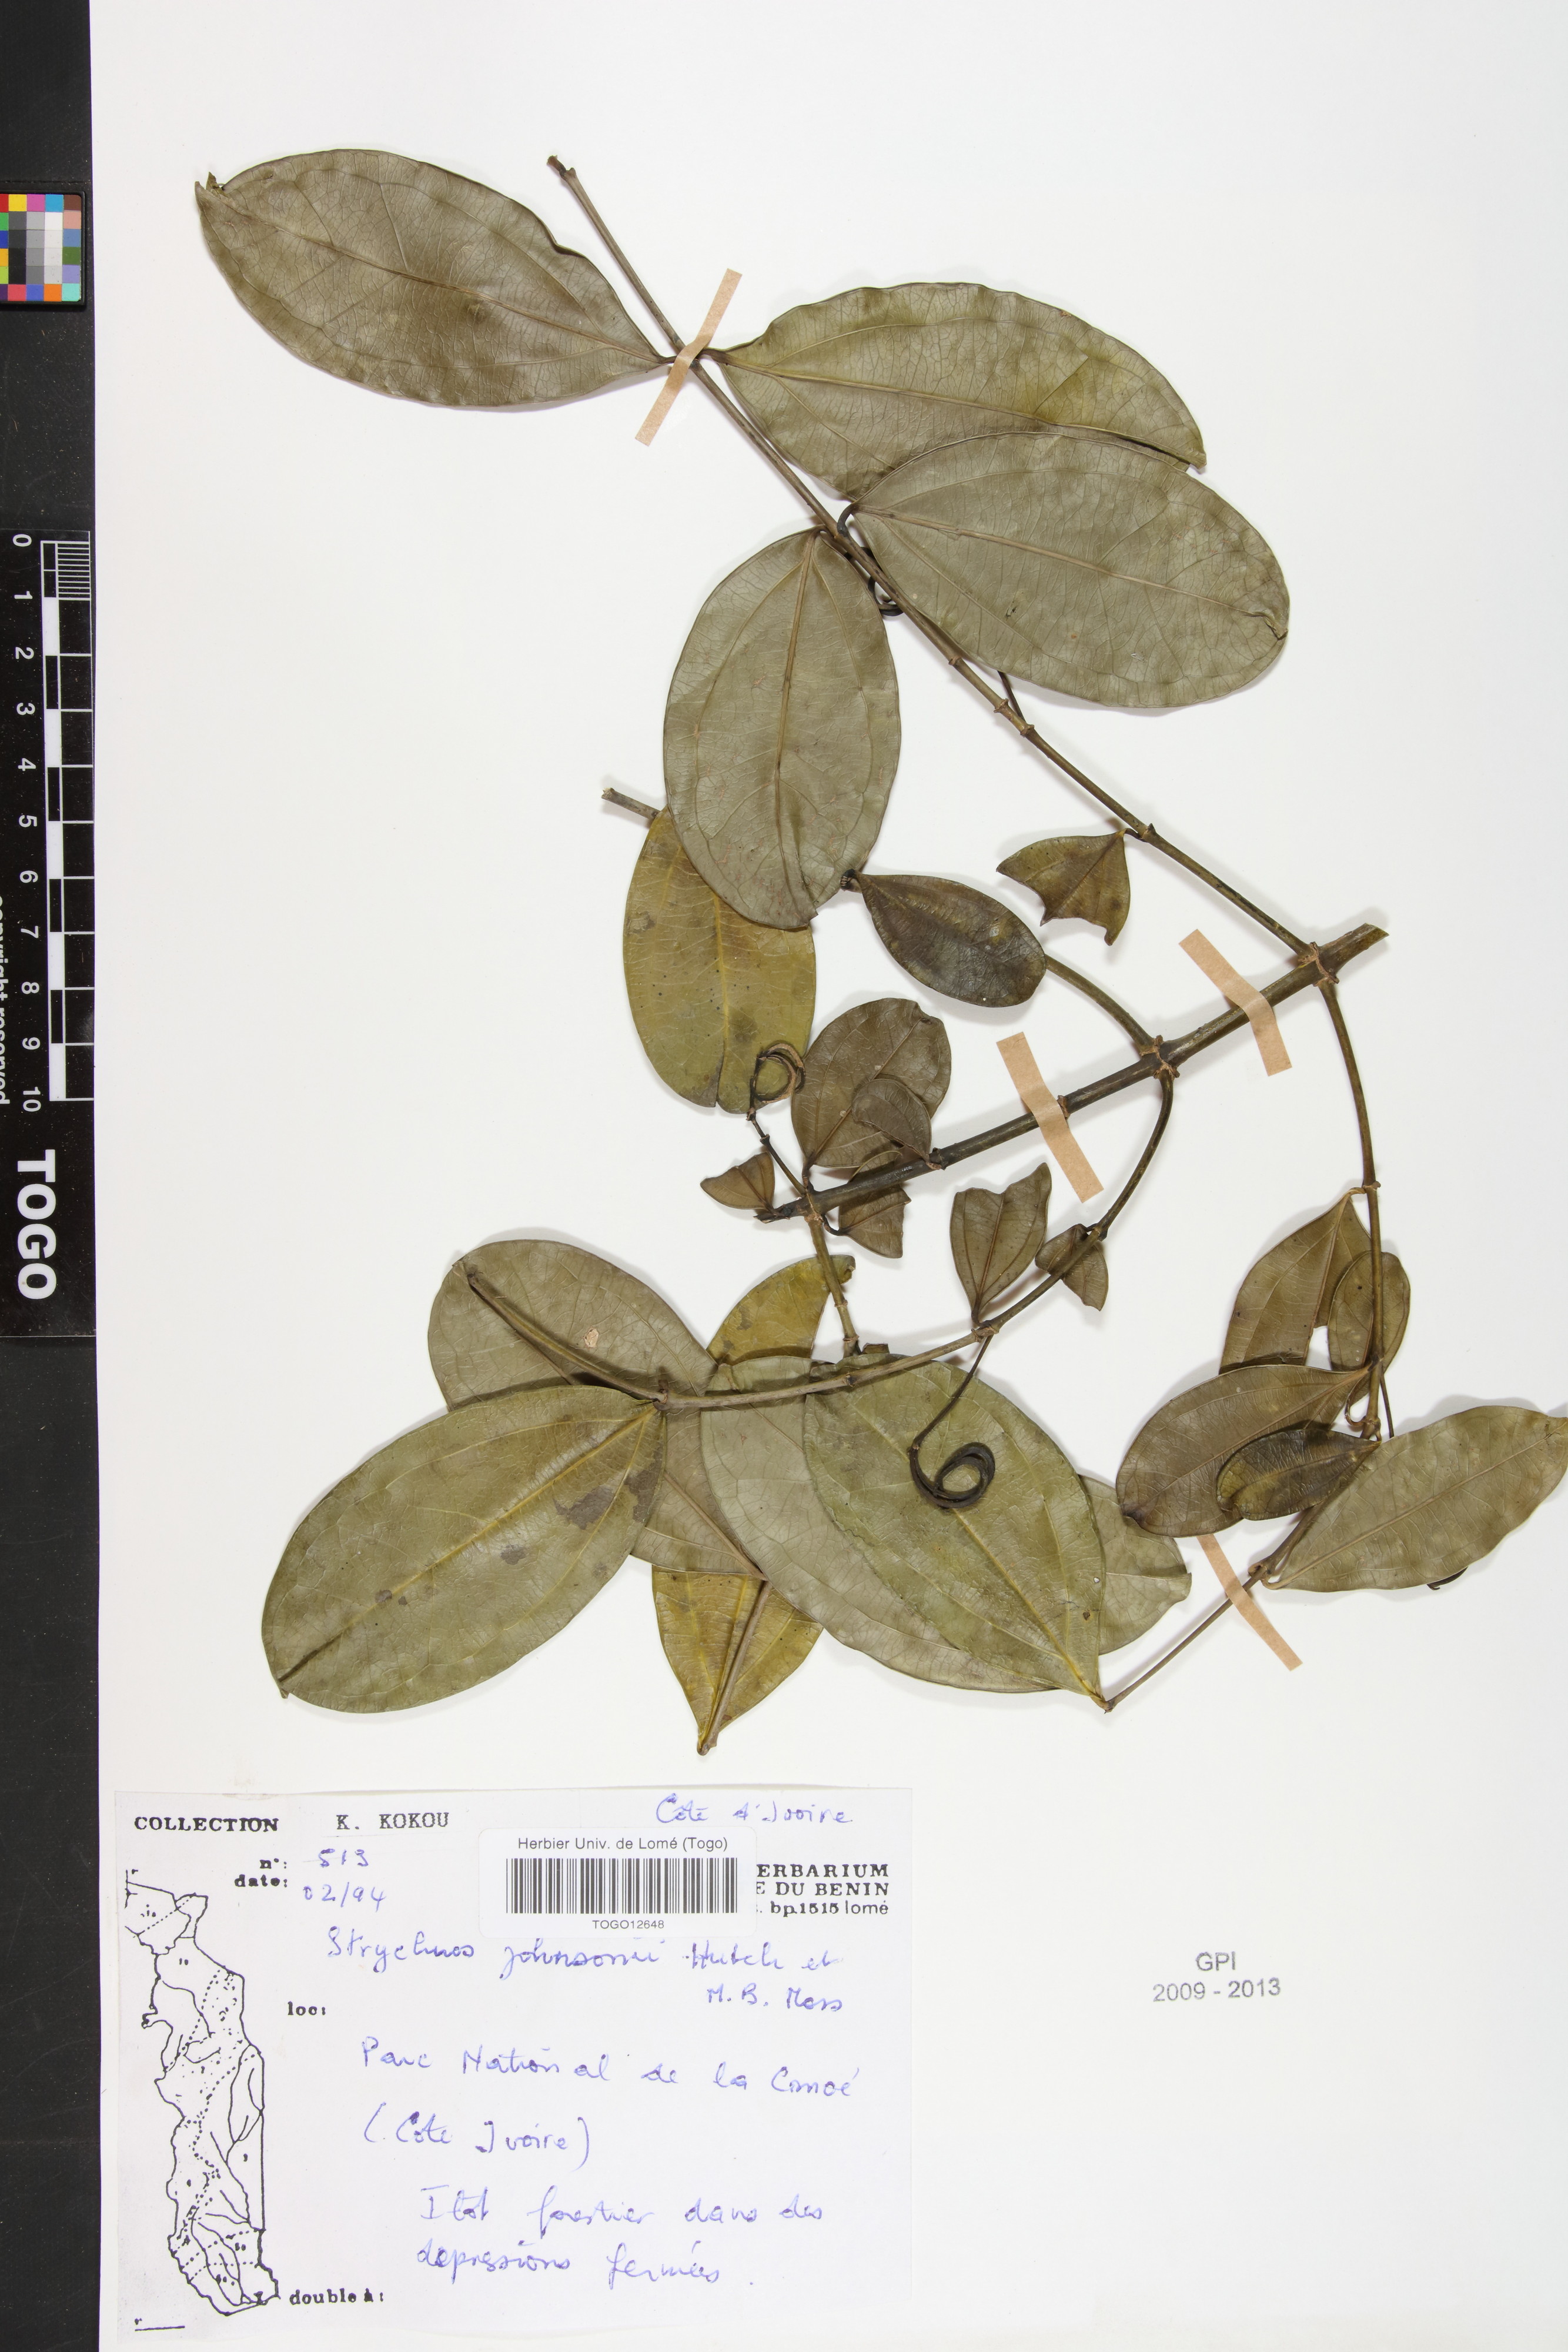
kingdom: Plantae
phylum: Tracheophyta
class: Magnoliopsida
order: Gentianales
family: Loganiaceae
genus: Strychnos
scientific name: Strychnos johnsonii
